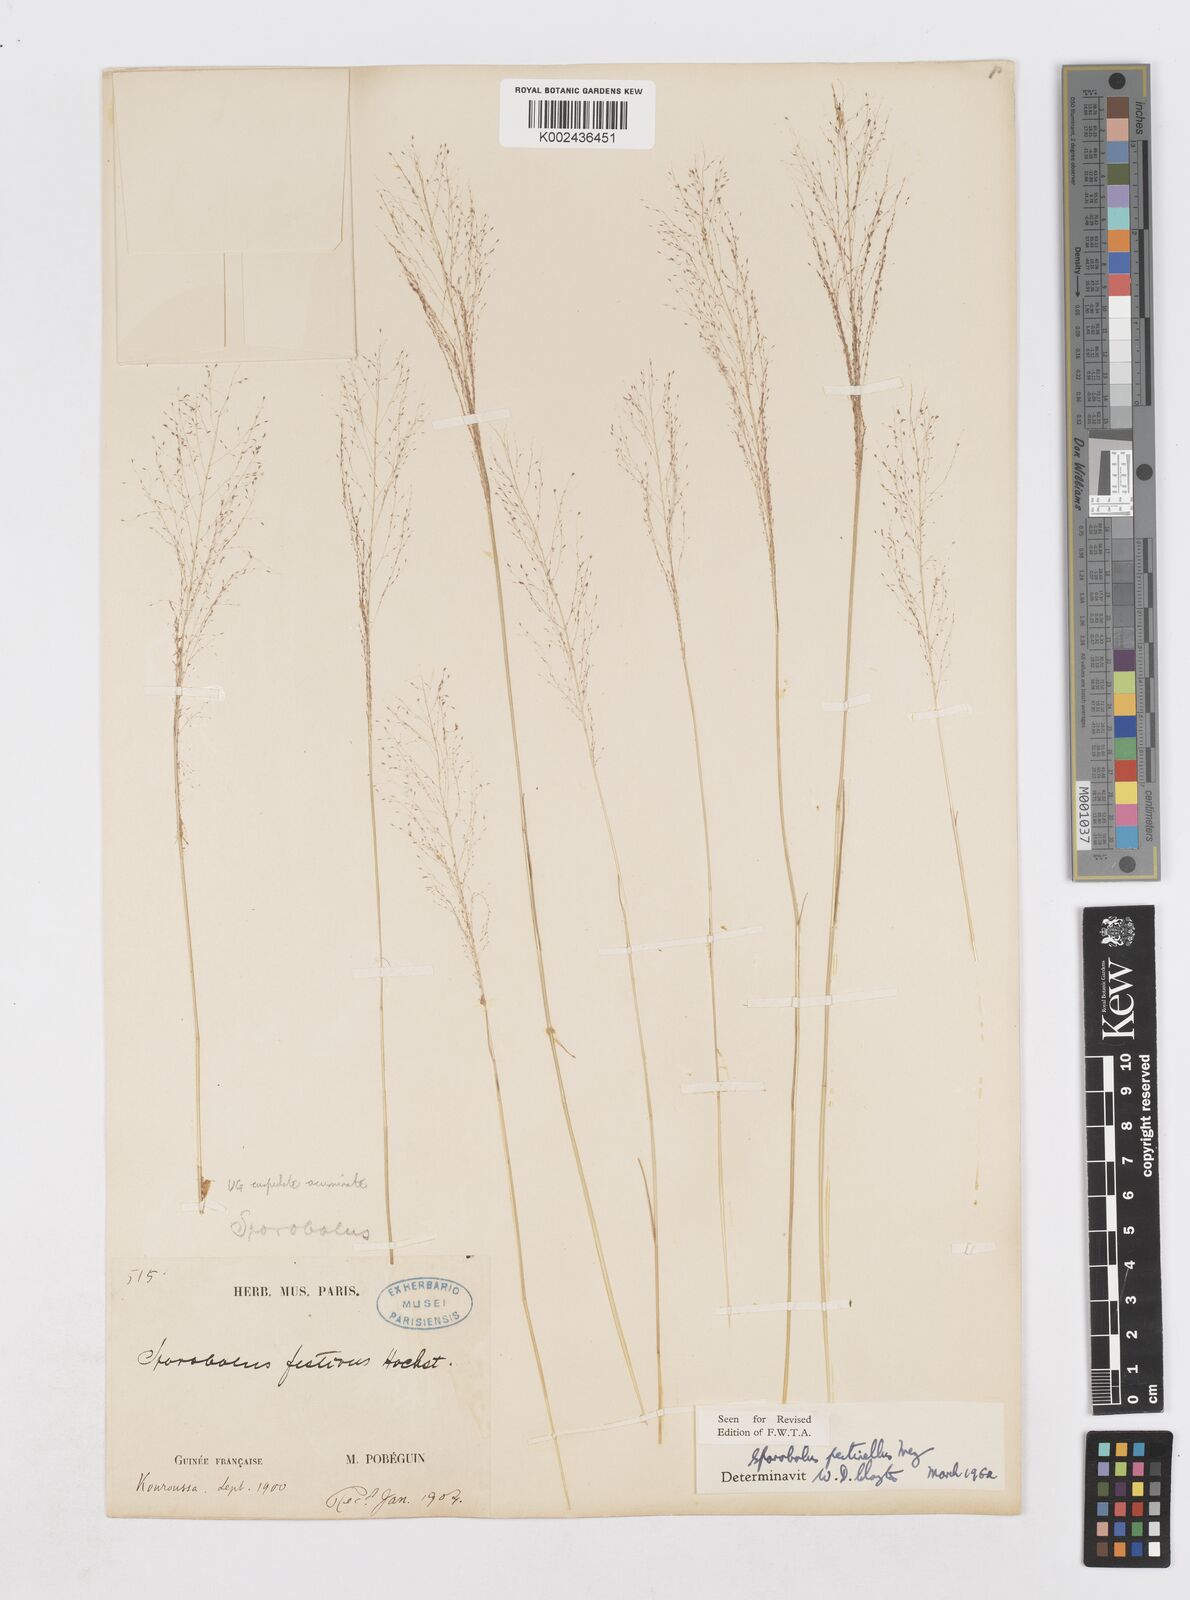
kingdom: Plantae
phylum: Tracheophyta
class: Liliopsida
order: Poales
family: Poaceae
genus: Sporobolus
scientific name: Sporobolus pectinellus
